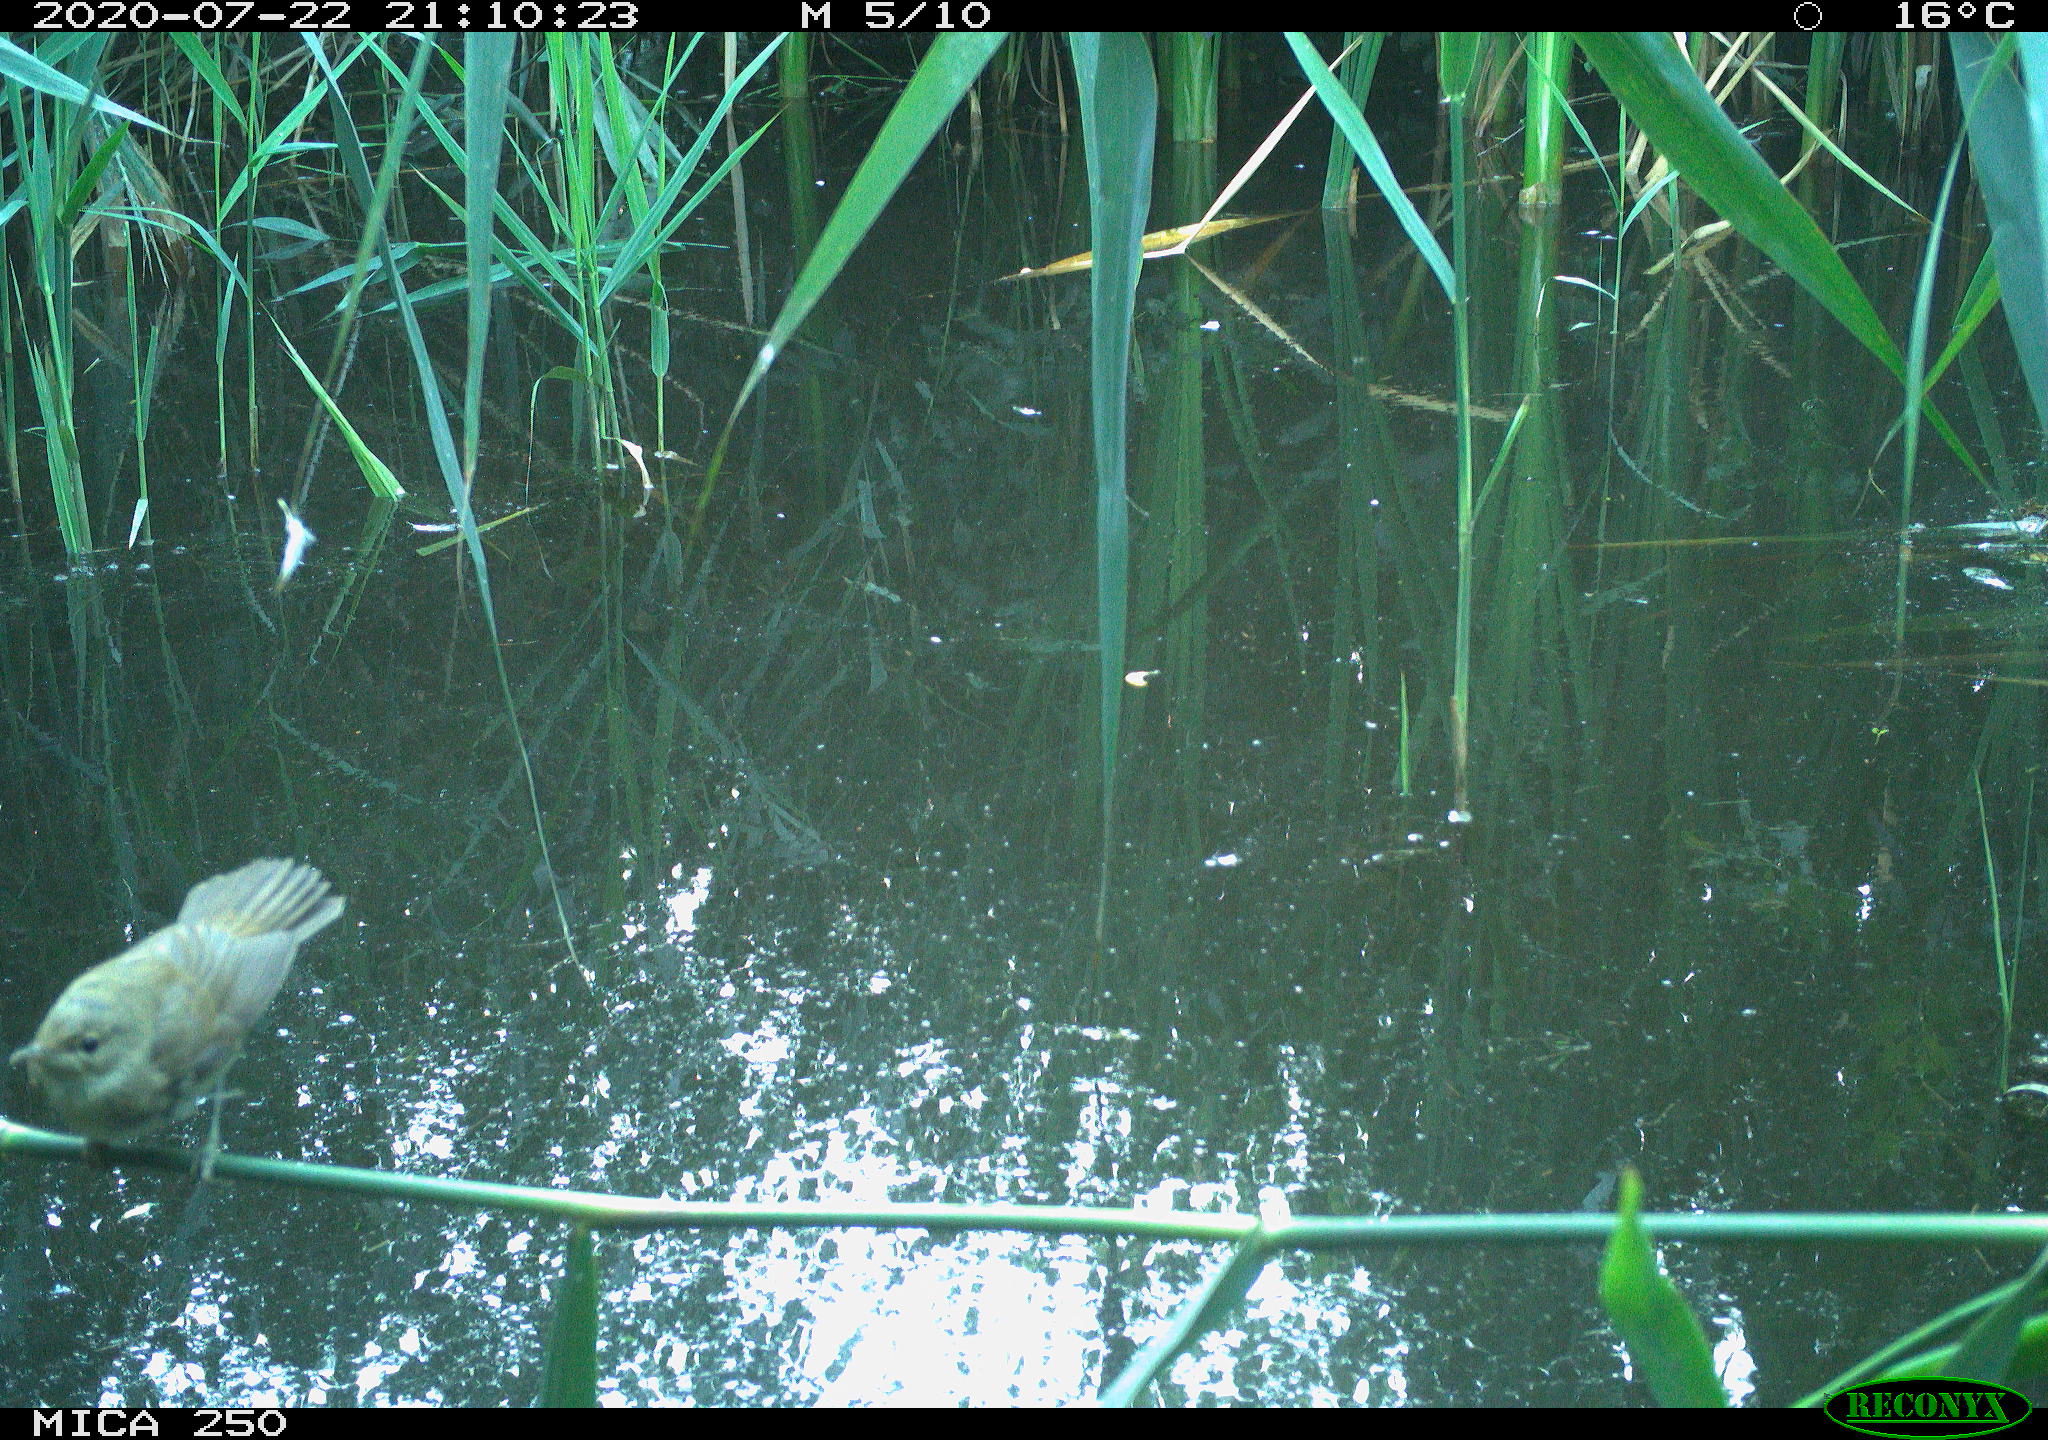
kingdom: Animalia
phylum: Chordata
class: Aves
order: Passeriformes
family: Acrocephalidae
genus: Acrocephalus
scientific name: Acrocephalus scirpaceus
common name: Eurasian reed warbler
